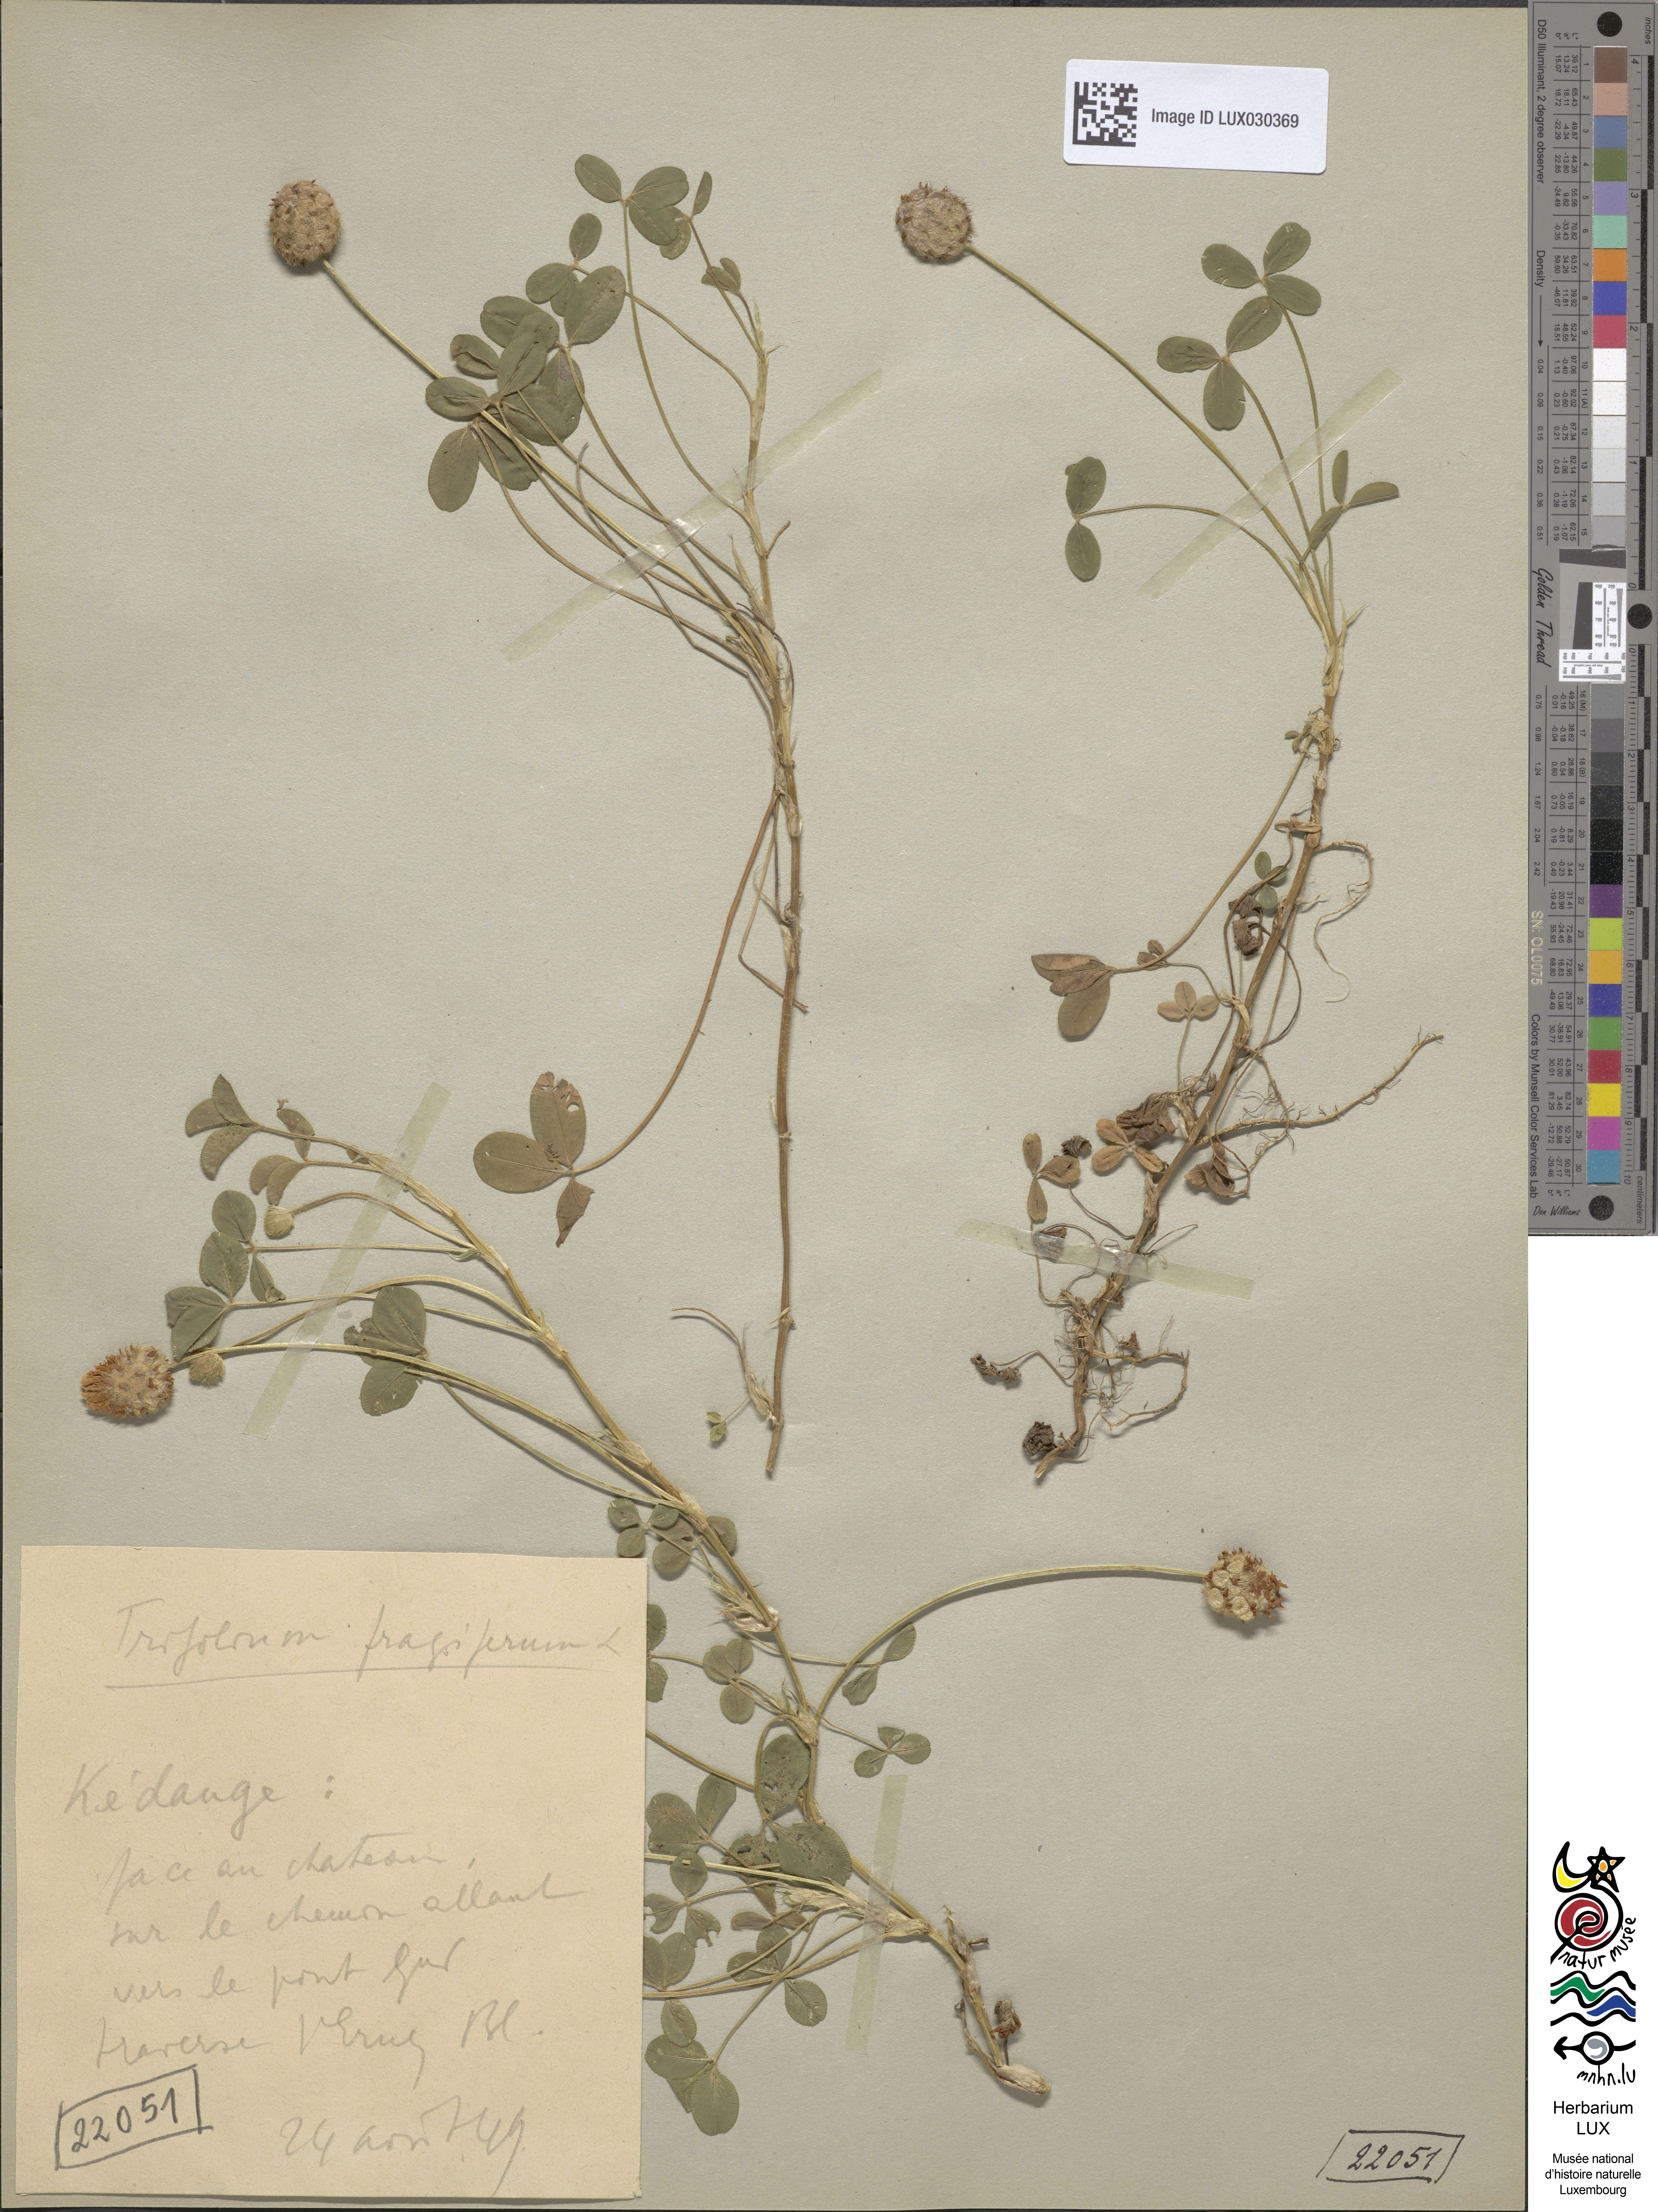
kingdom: Plantae
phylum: Tracheophyta
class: Magnoliopsida
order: Fabales
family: Fabaceae
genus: Trifolium
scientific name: Trifolium fragiferum
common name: Strawberry clover
